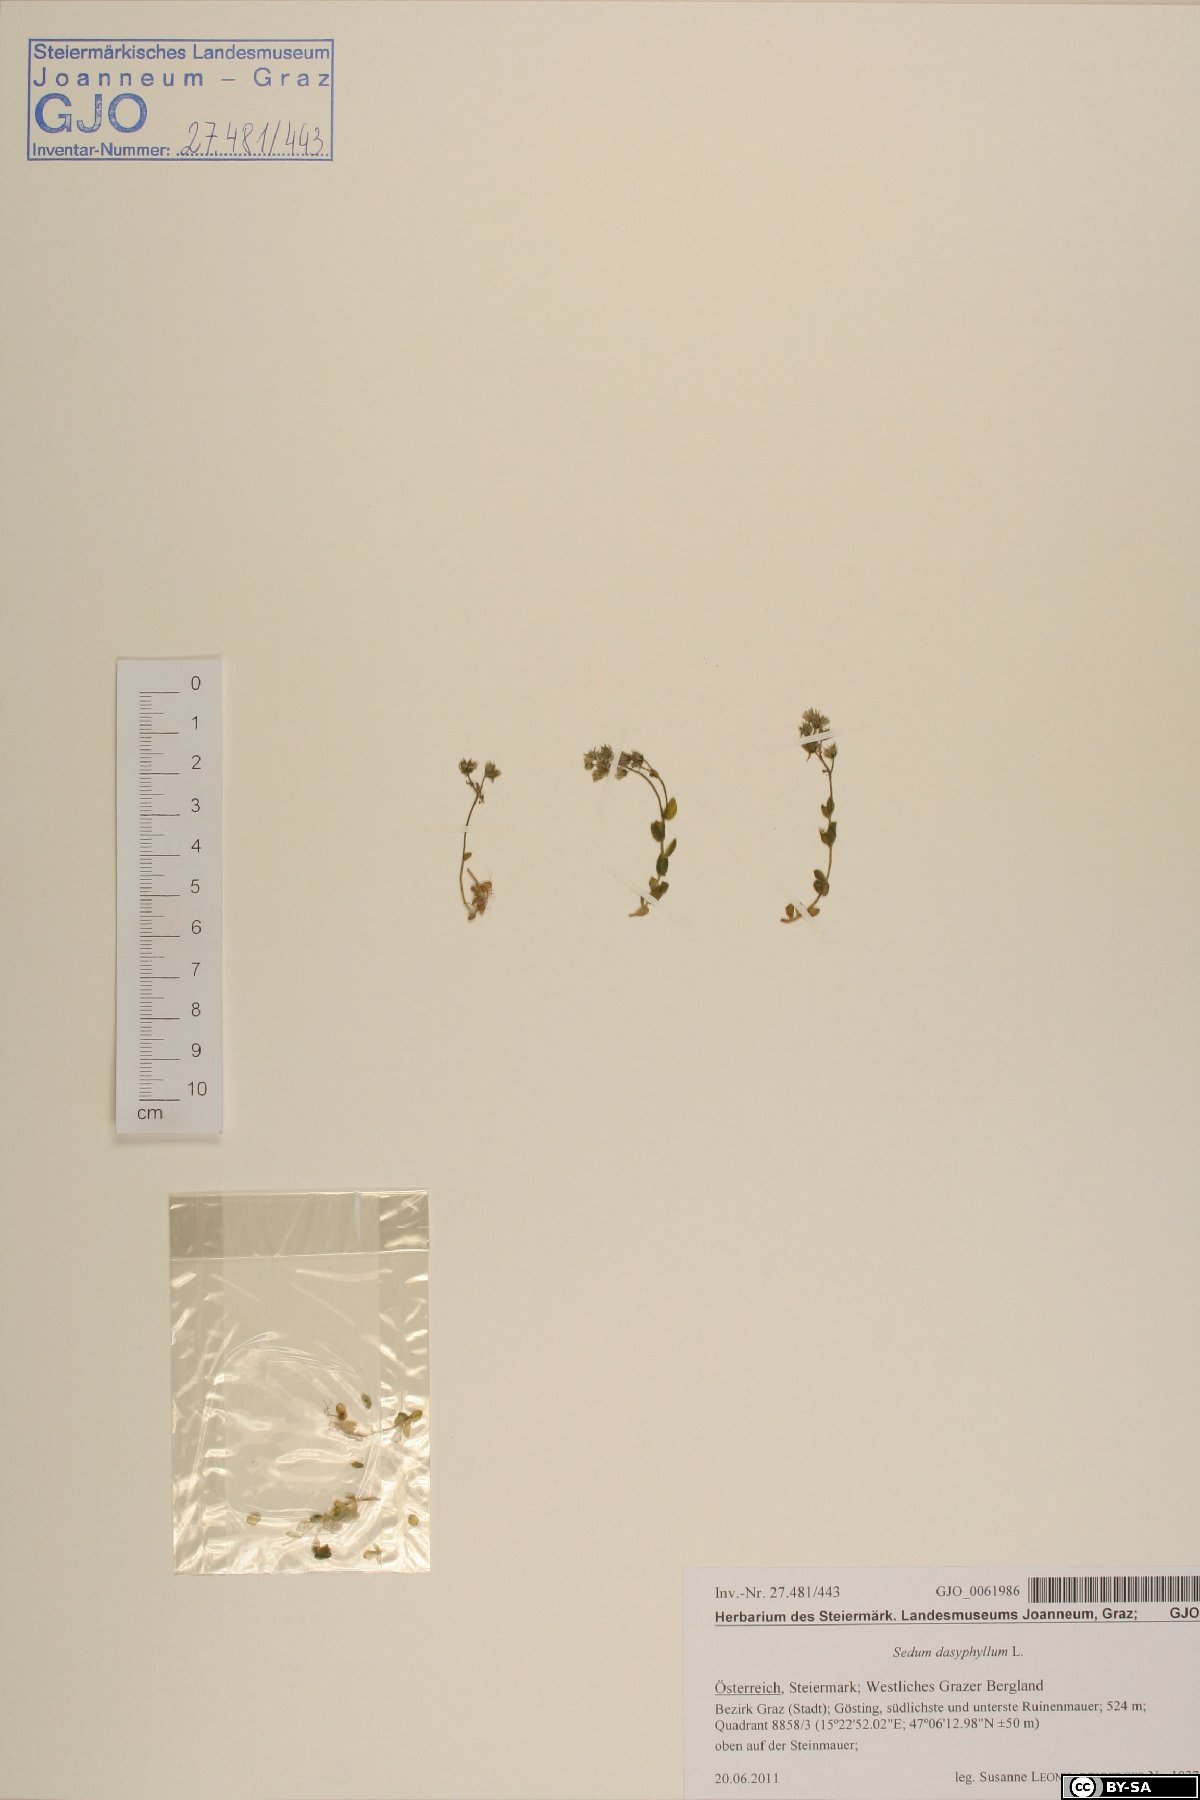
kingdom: Plantae
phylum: Tracheophyta
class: Magnoliopsida
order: Saxifragales
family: Crassulaceae
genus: Sedum
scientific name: Sedum dasyphyllum
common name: Thick-leaf stonecrop
